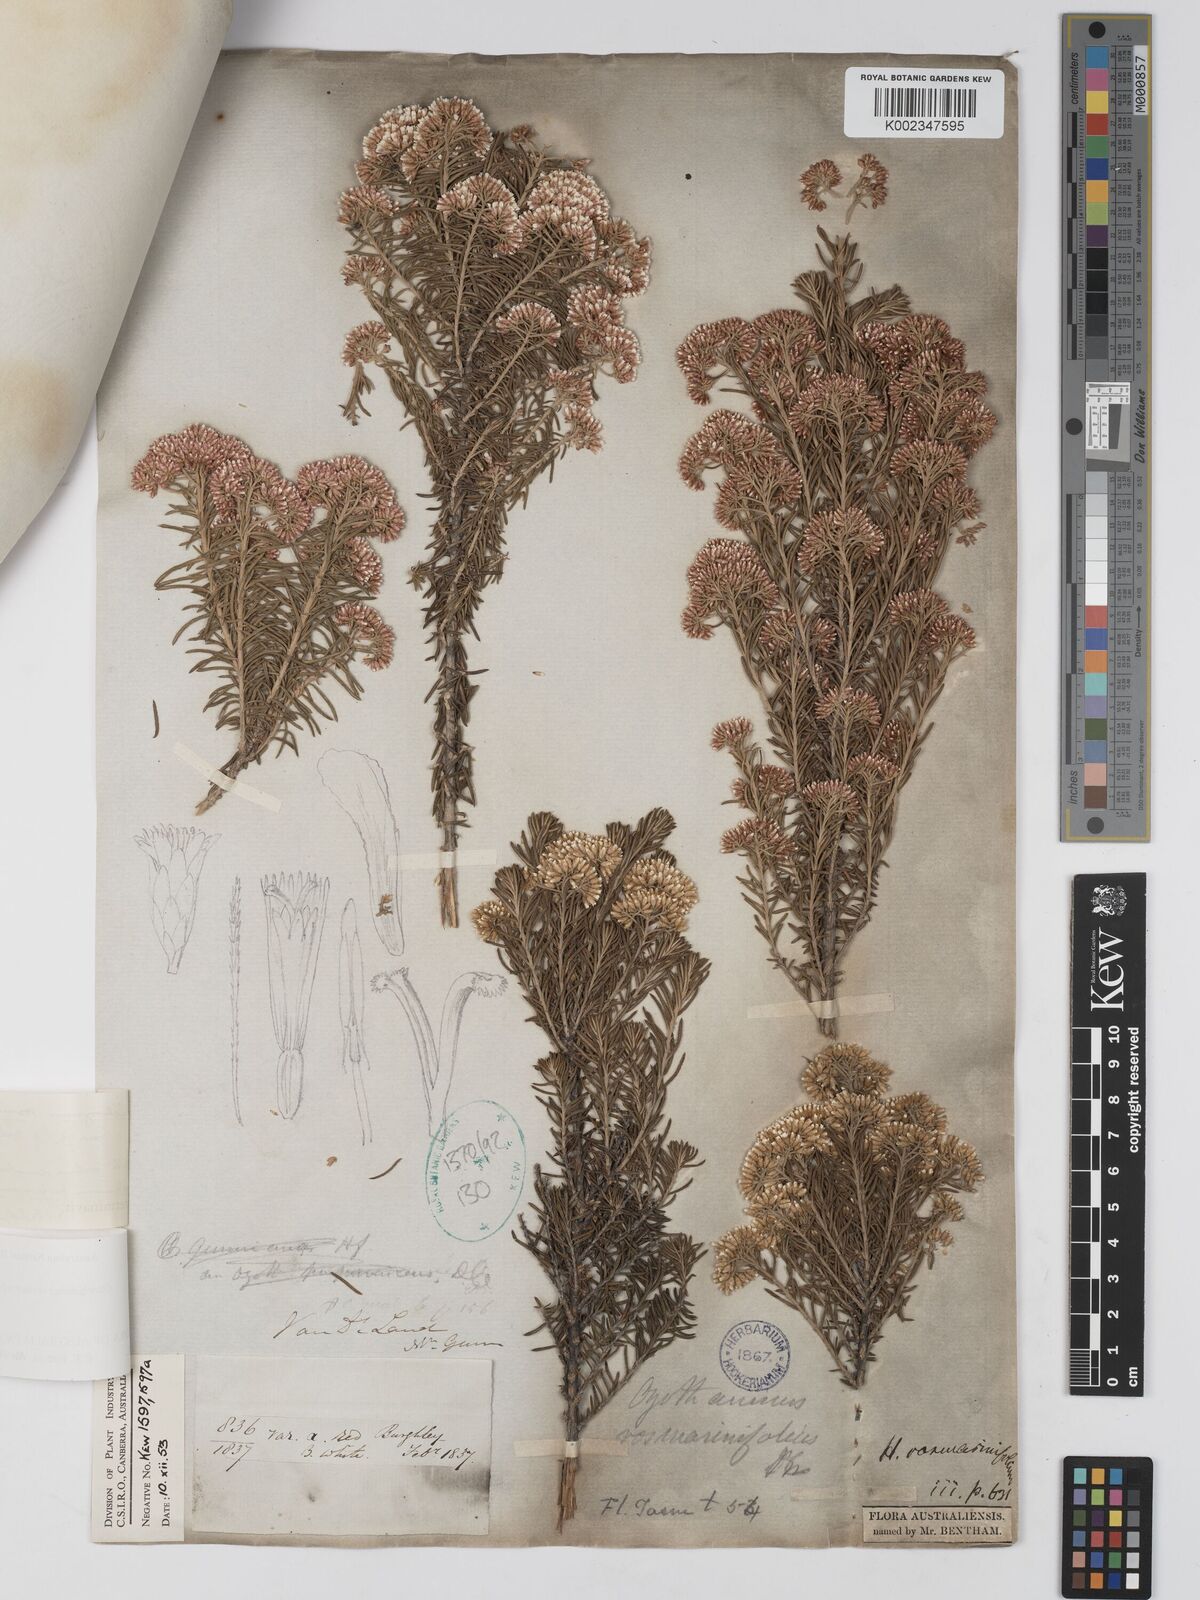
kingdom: Plantae
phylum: Tracheophyta
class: Magnoliopsida
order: Asterales
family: Asteraceae
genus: Ozothamnus
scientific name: Ozothamnus rosmarinifolius
